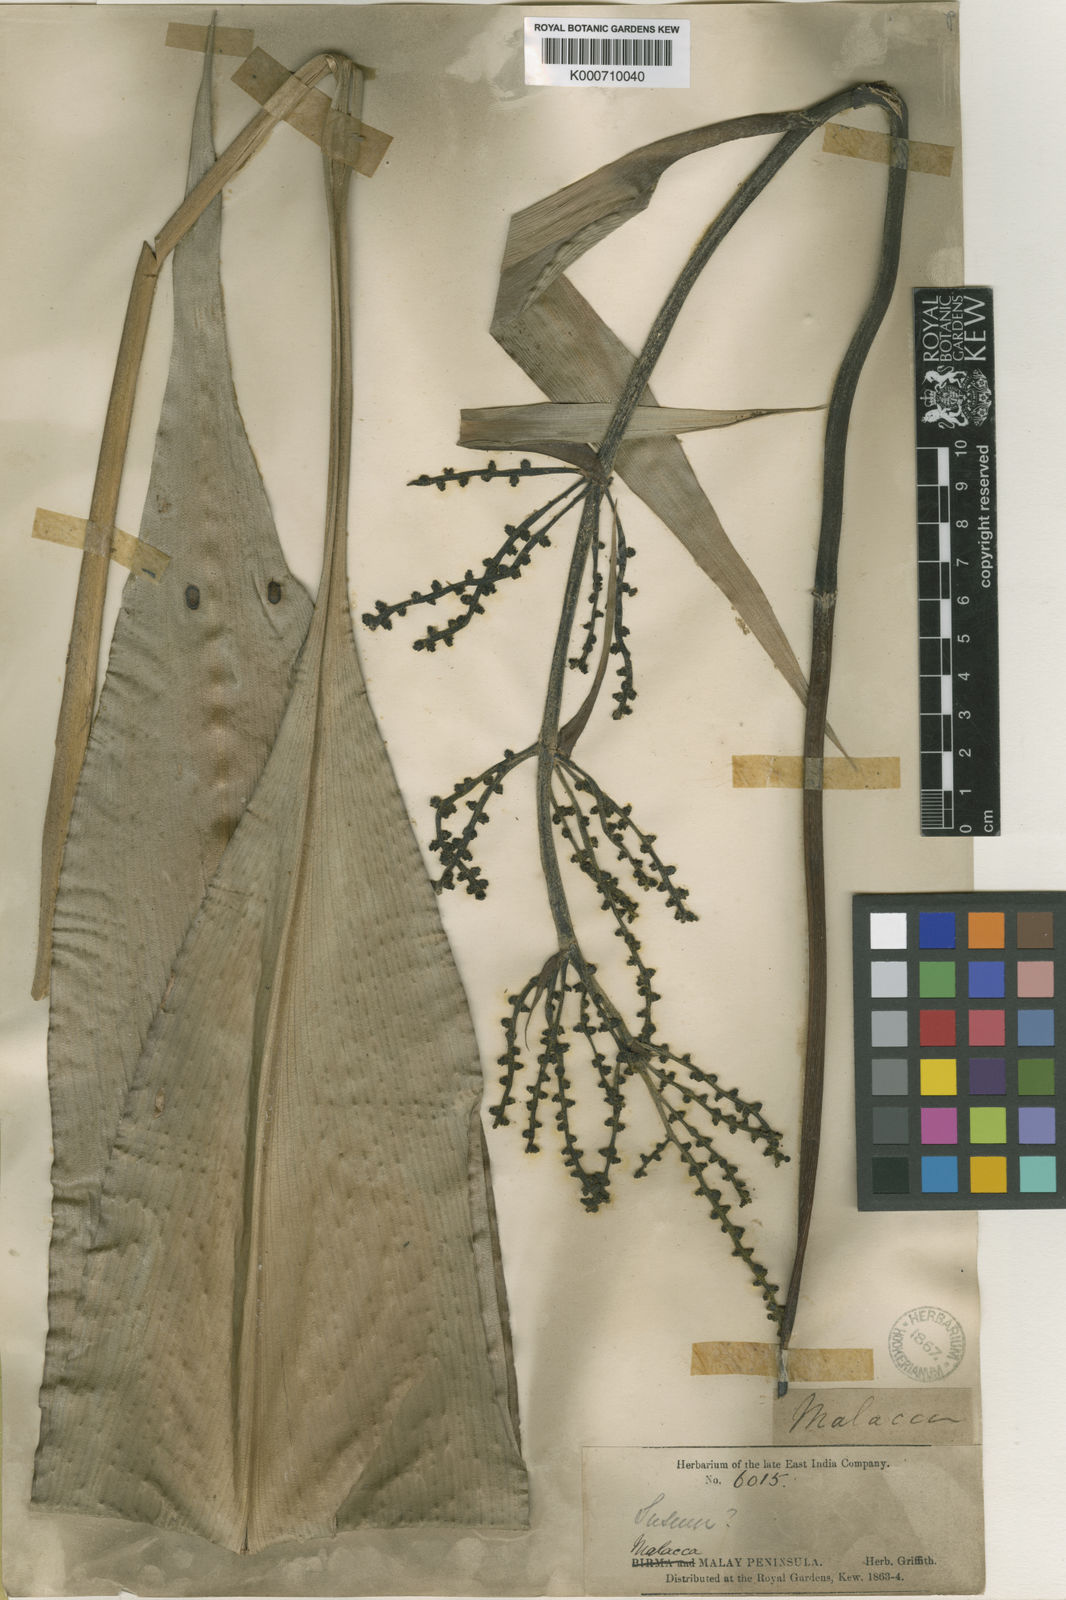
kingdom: Plantae
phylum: Tracheophyta
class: Liliopsida
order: Commelinales
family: Hanguanaceae
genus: Hanguana
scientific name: Hanguana malayana
